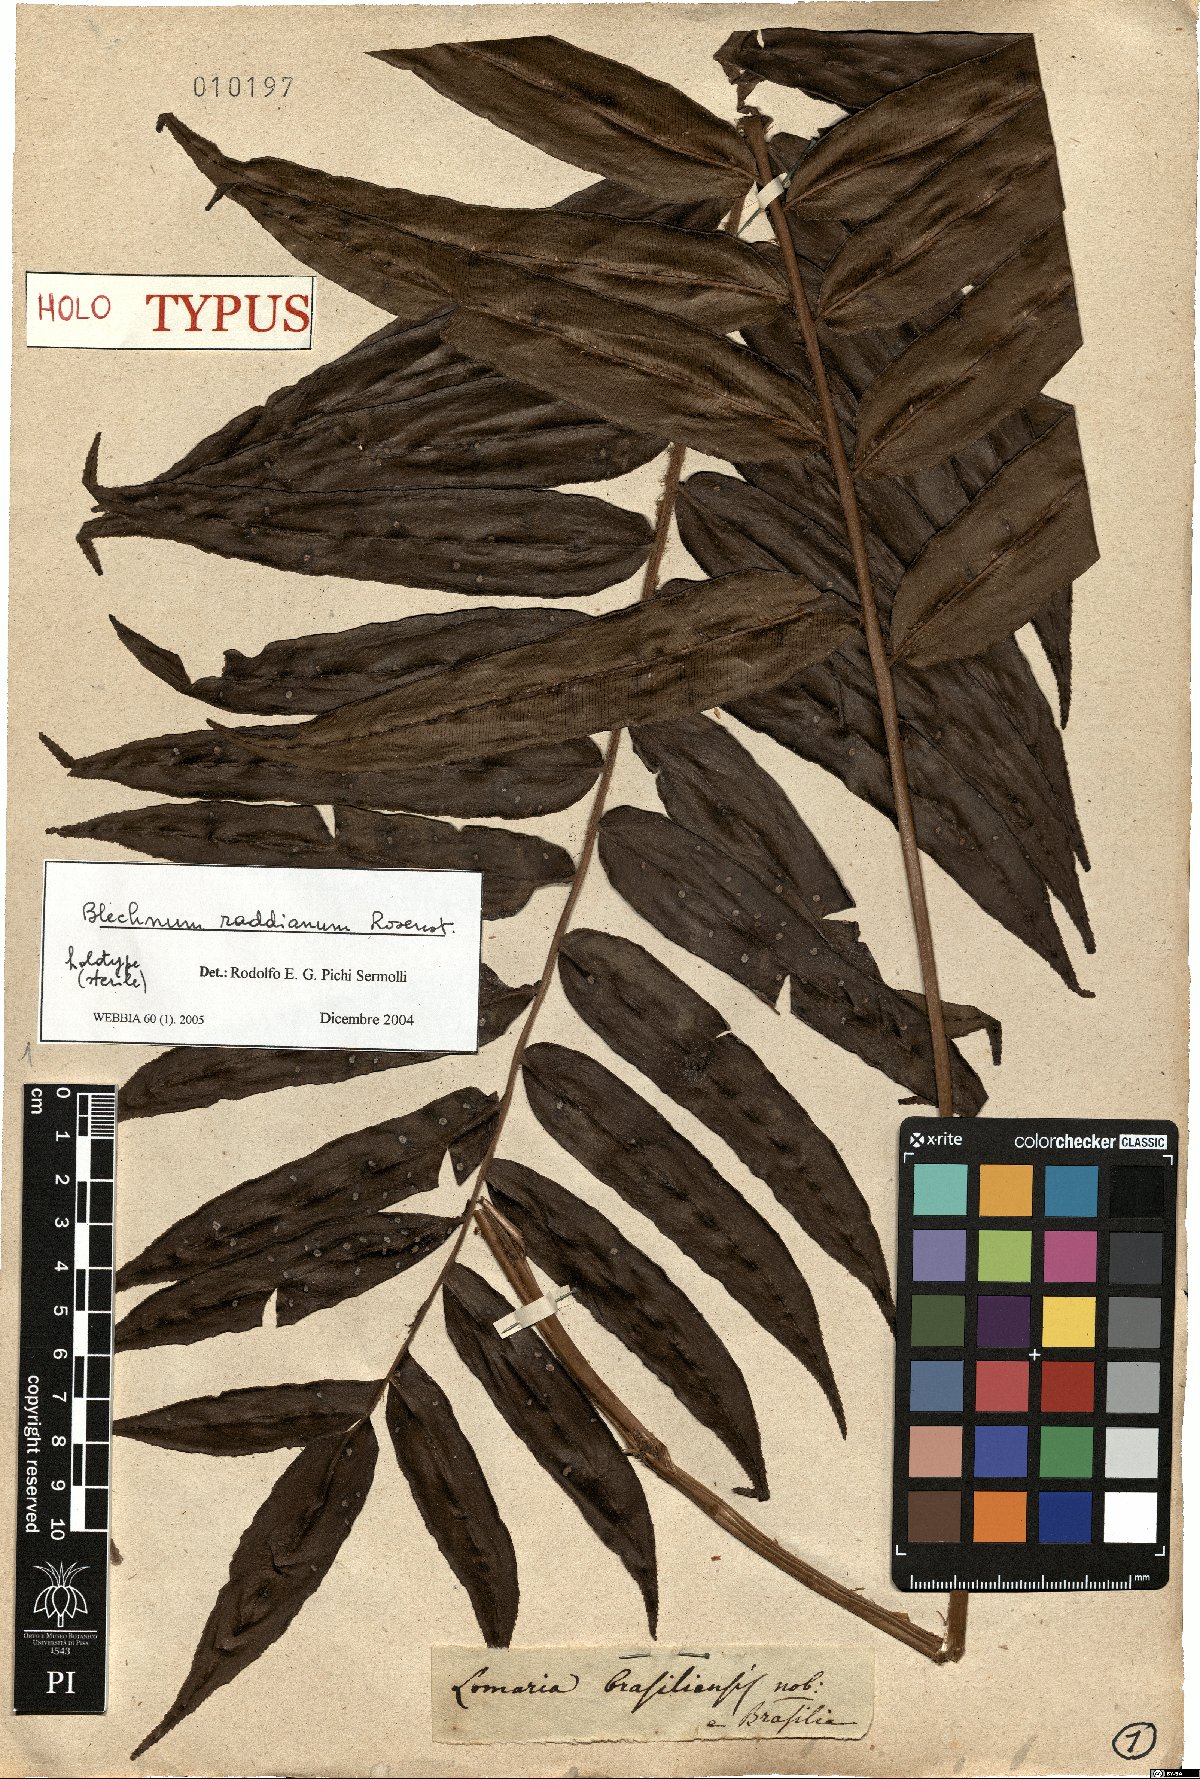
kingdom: Plantae
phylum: Tracheophyta
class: Polypodiopsida
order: Polypodiales
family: Blechnaceae
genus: Parablechnum
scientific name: Parablechnum cordatum
